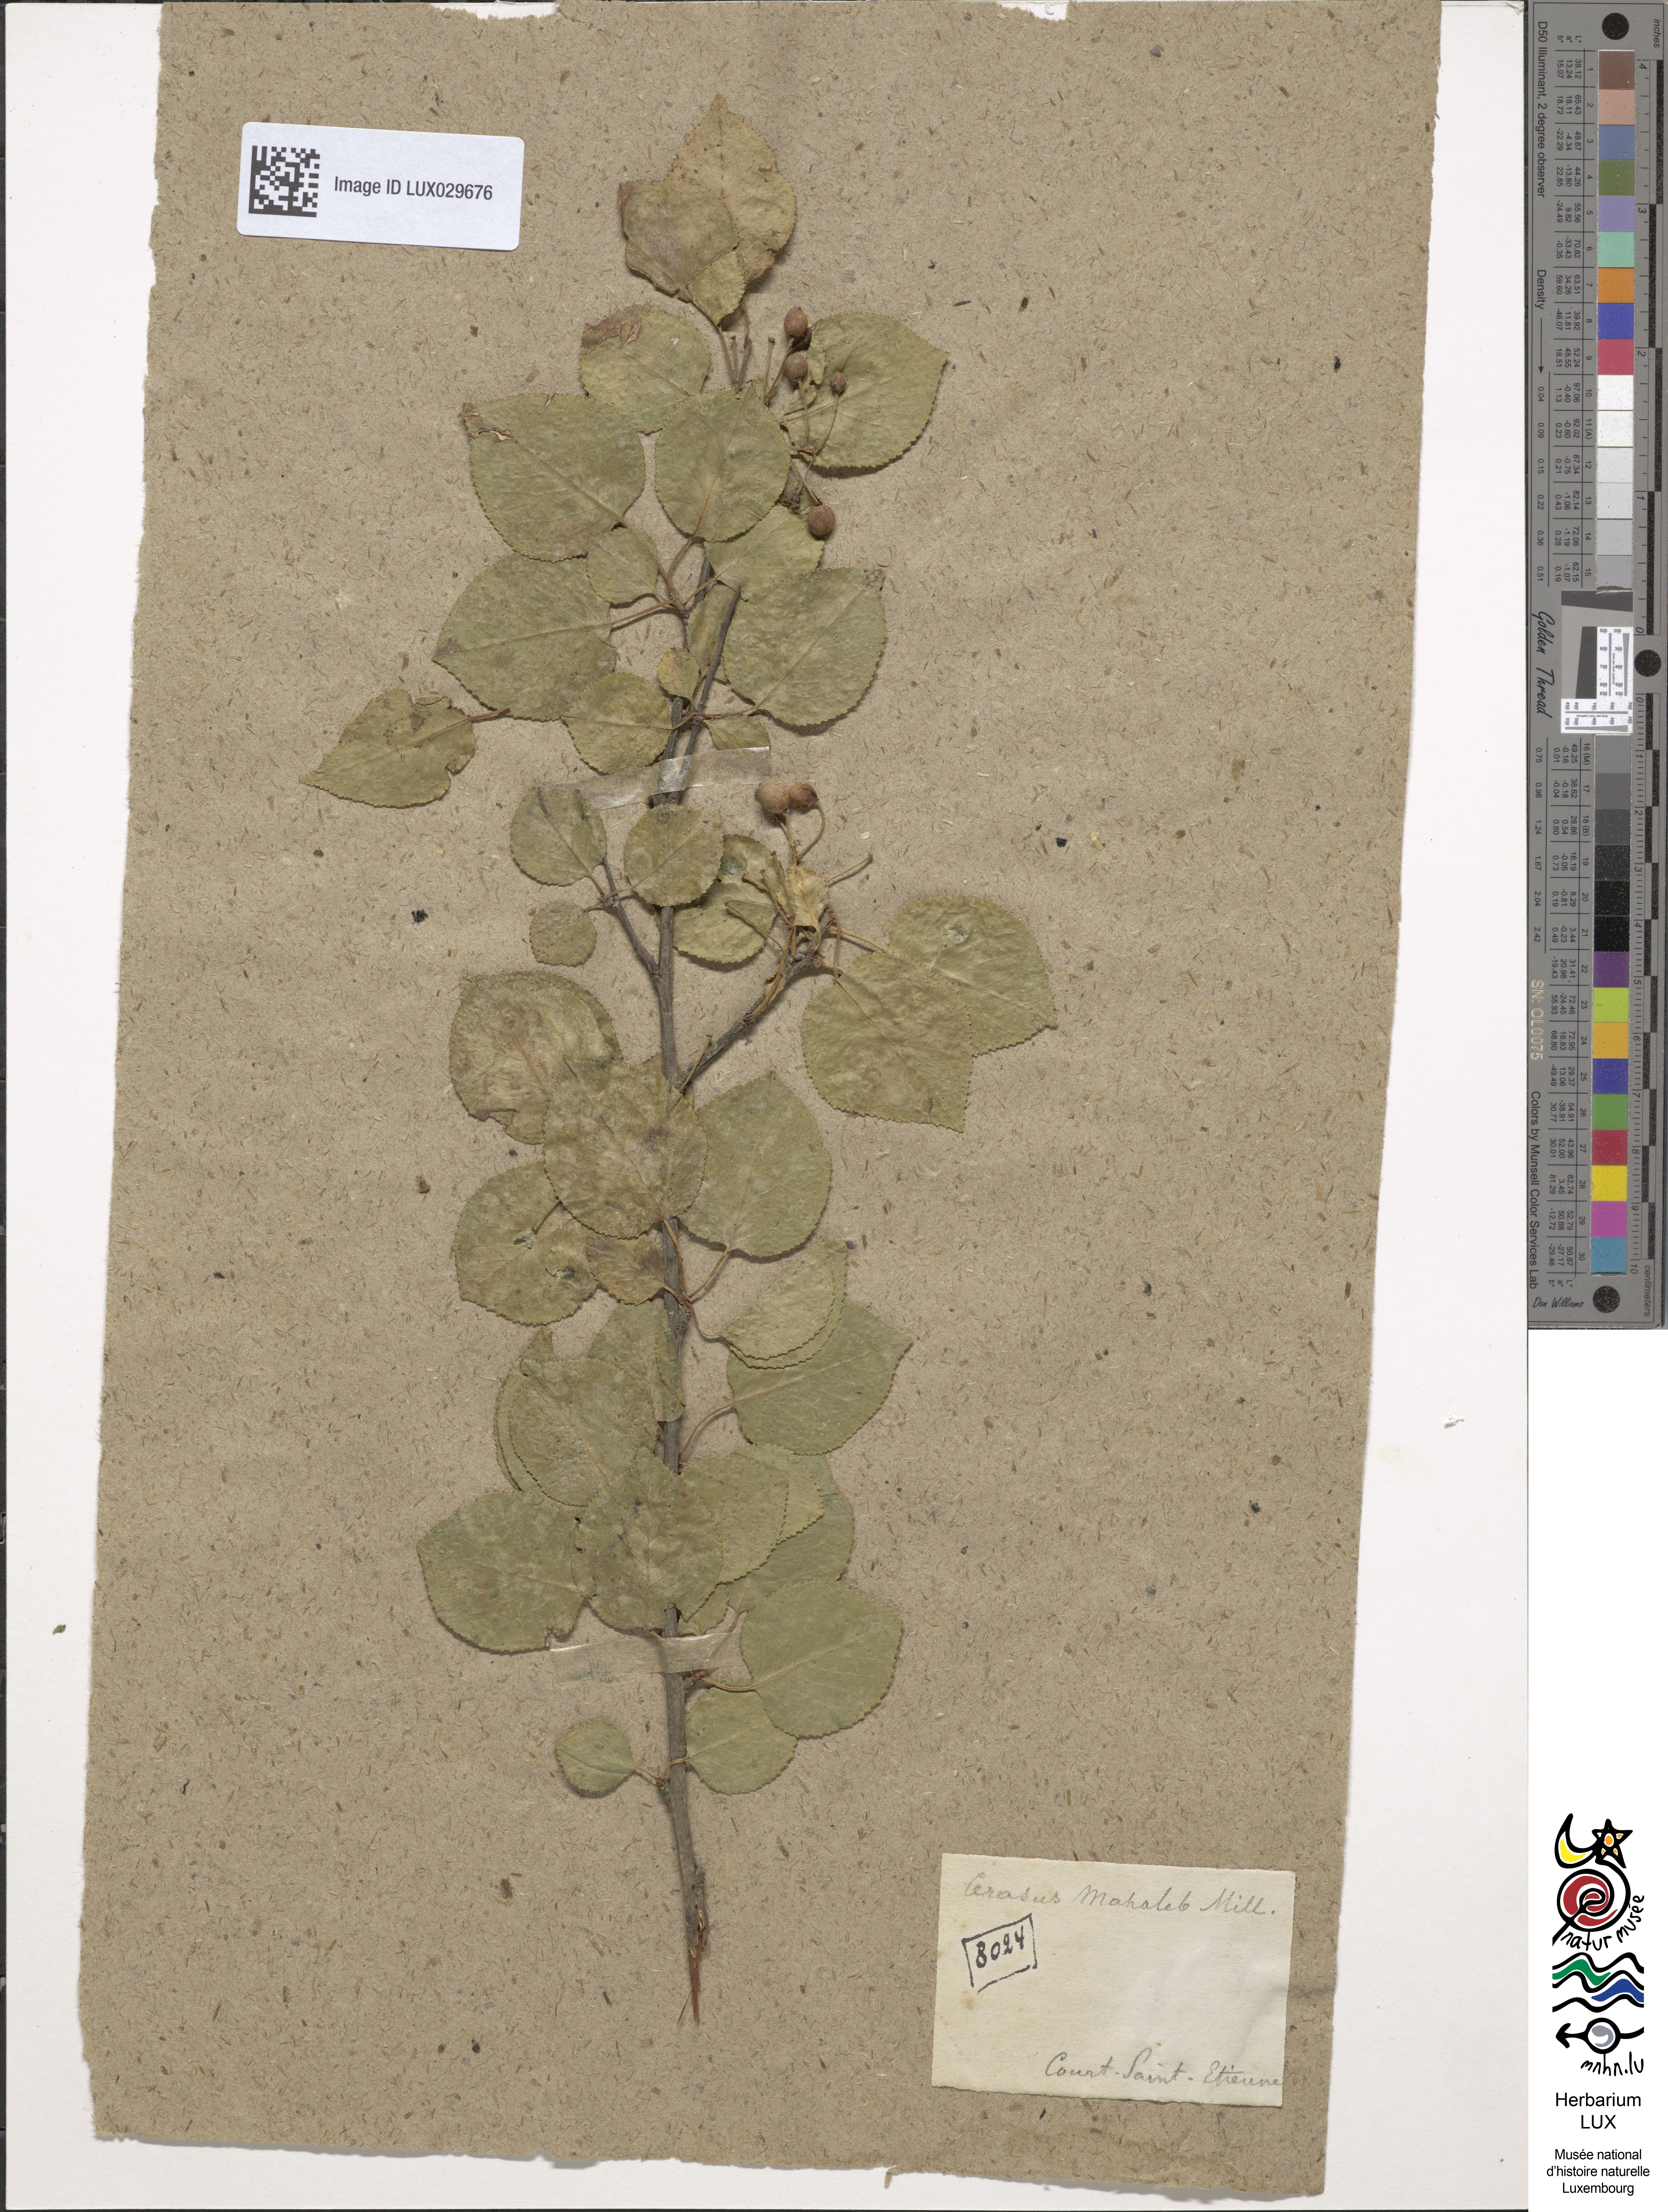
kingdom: Plantae
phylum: Tracheophyta
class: Magnoliopsida
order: Rosales
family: Rosaceae
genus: Prunus
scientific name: Prunus mahaleb
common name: Mahaleb cherry
